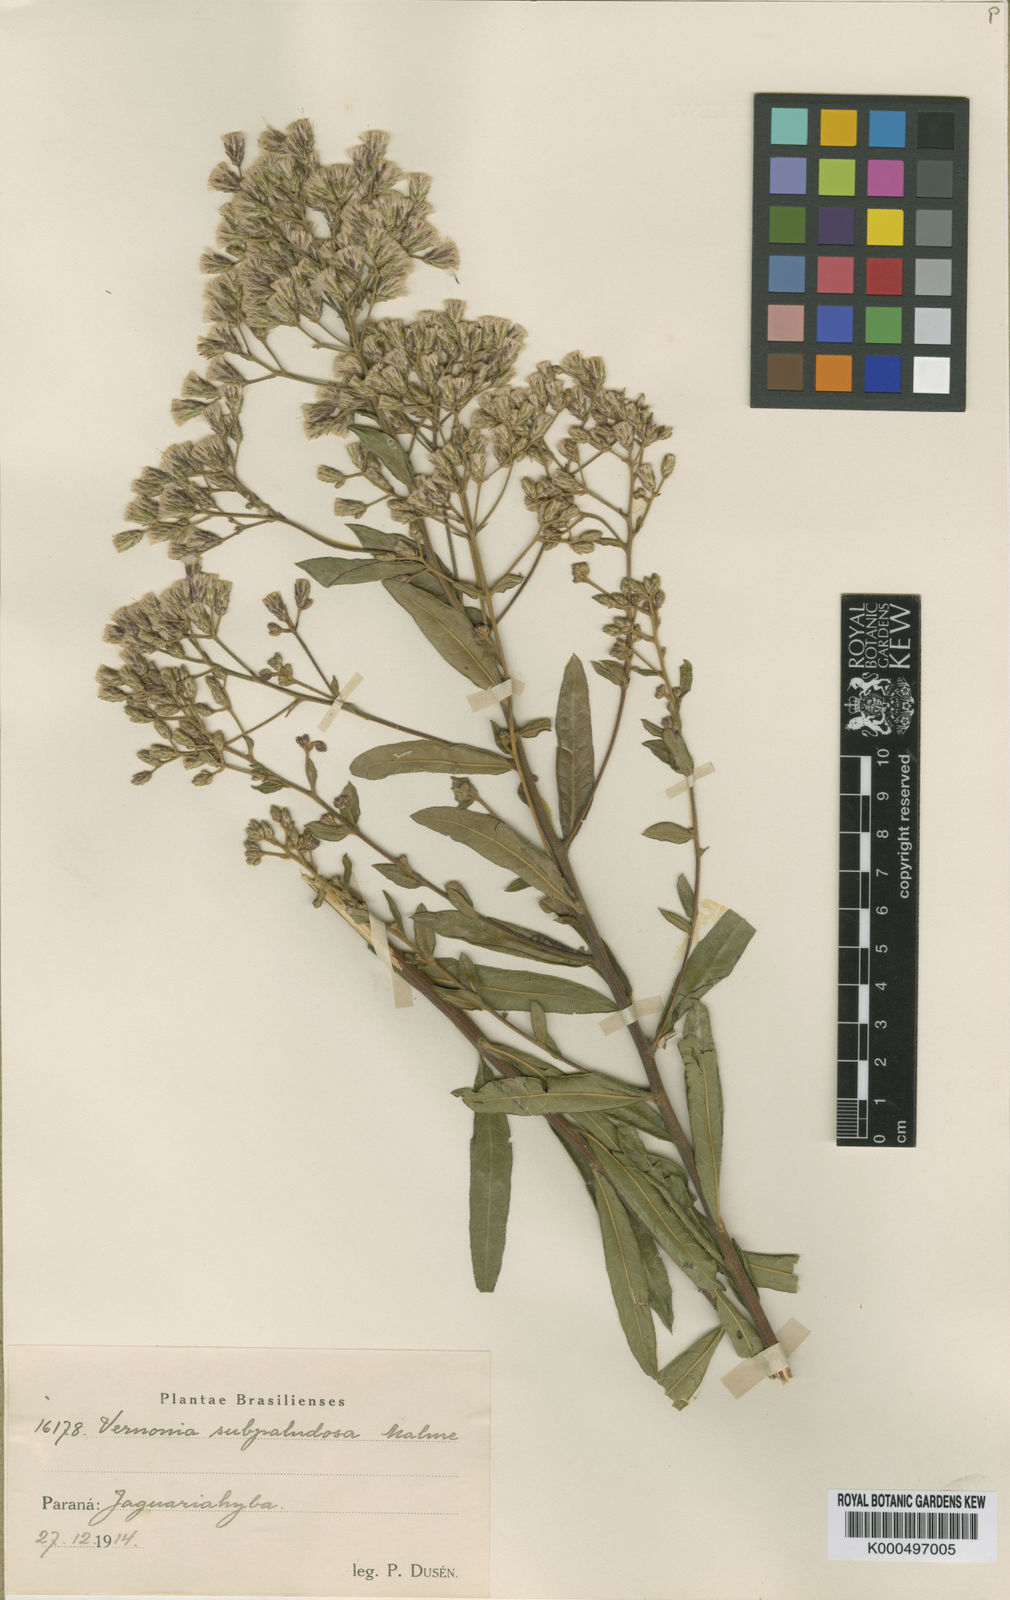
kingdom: Plantae
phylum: Tracheophyta
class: Magnoliopsida
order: Asterales
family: Asteraceae
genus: Vernonia
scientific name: Vernonia subpaludosa
